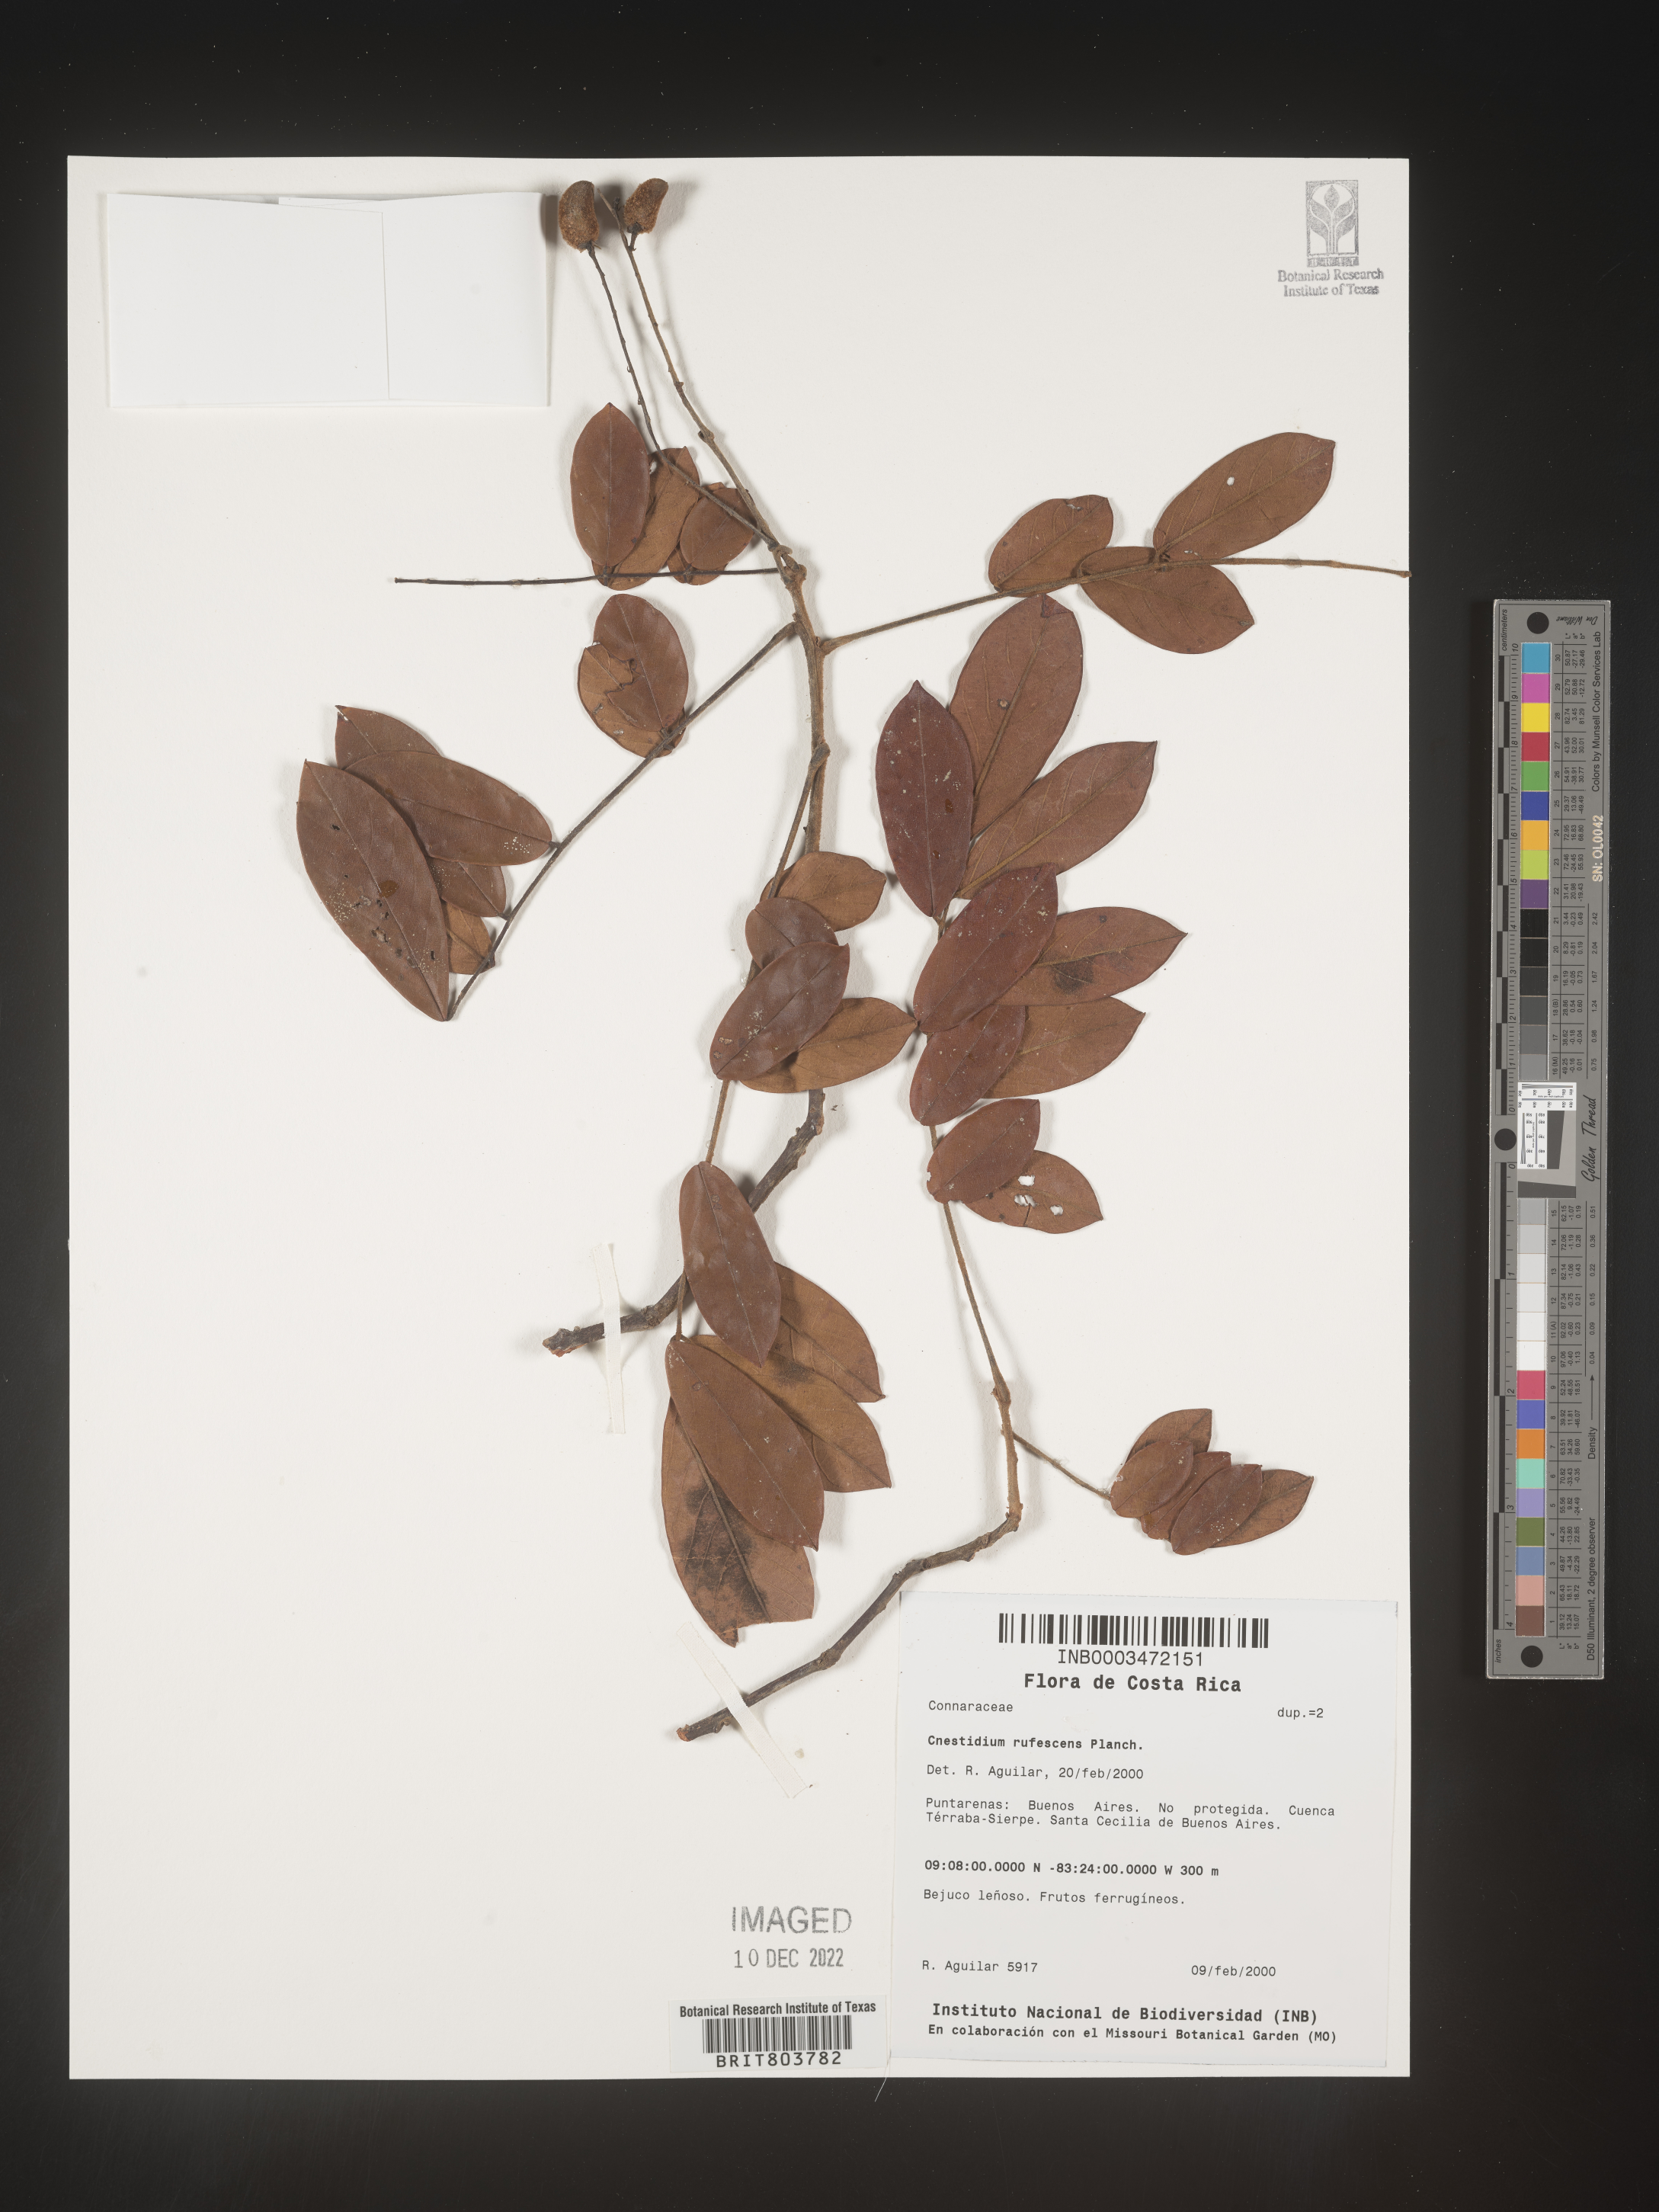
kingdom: Plantae
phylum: Tracheophyta
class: Magnoliopsida
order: Oxalidales
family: Connaraceae
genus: Cnestidium
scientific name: Cnestidium
